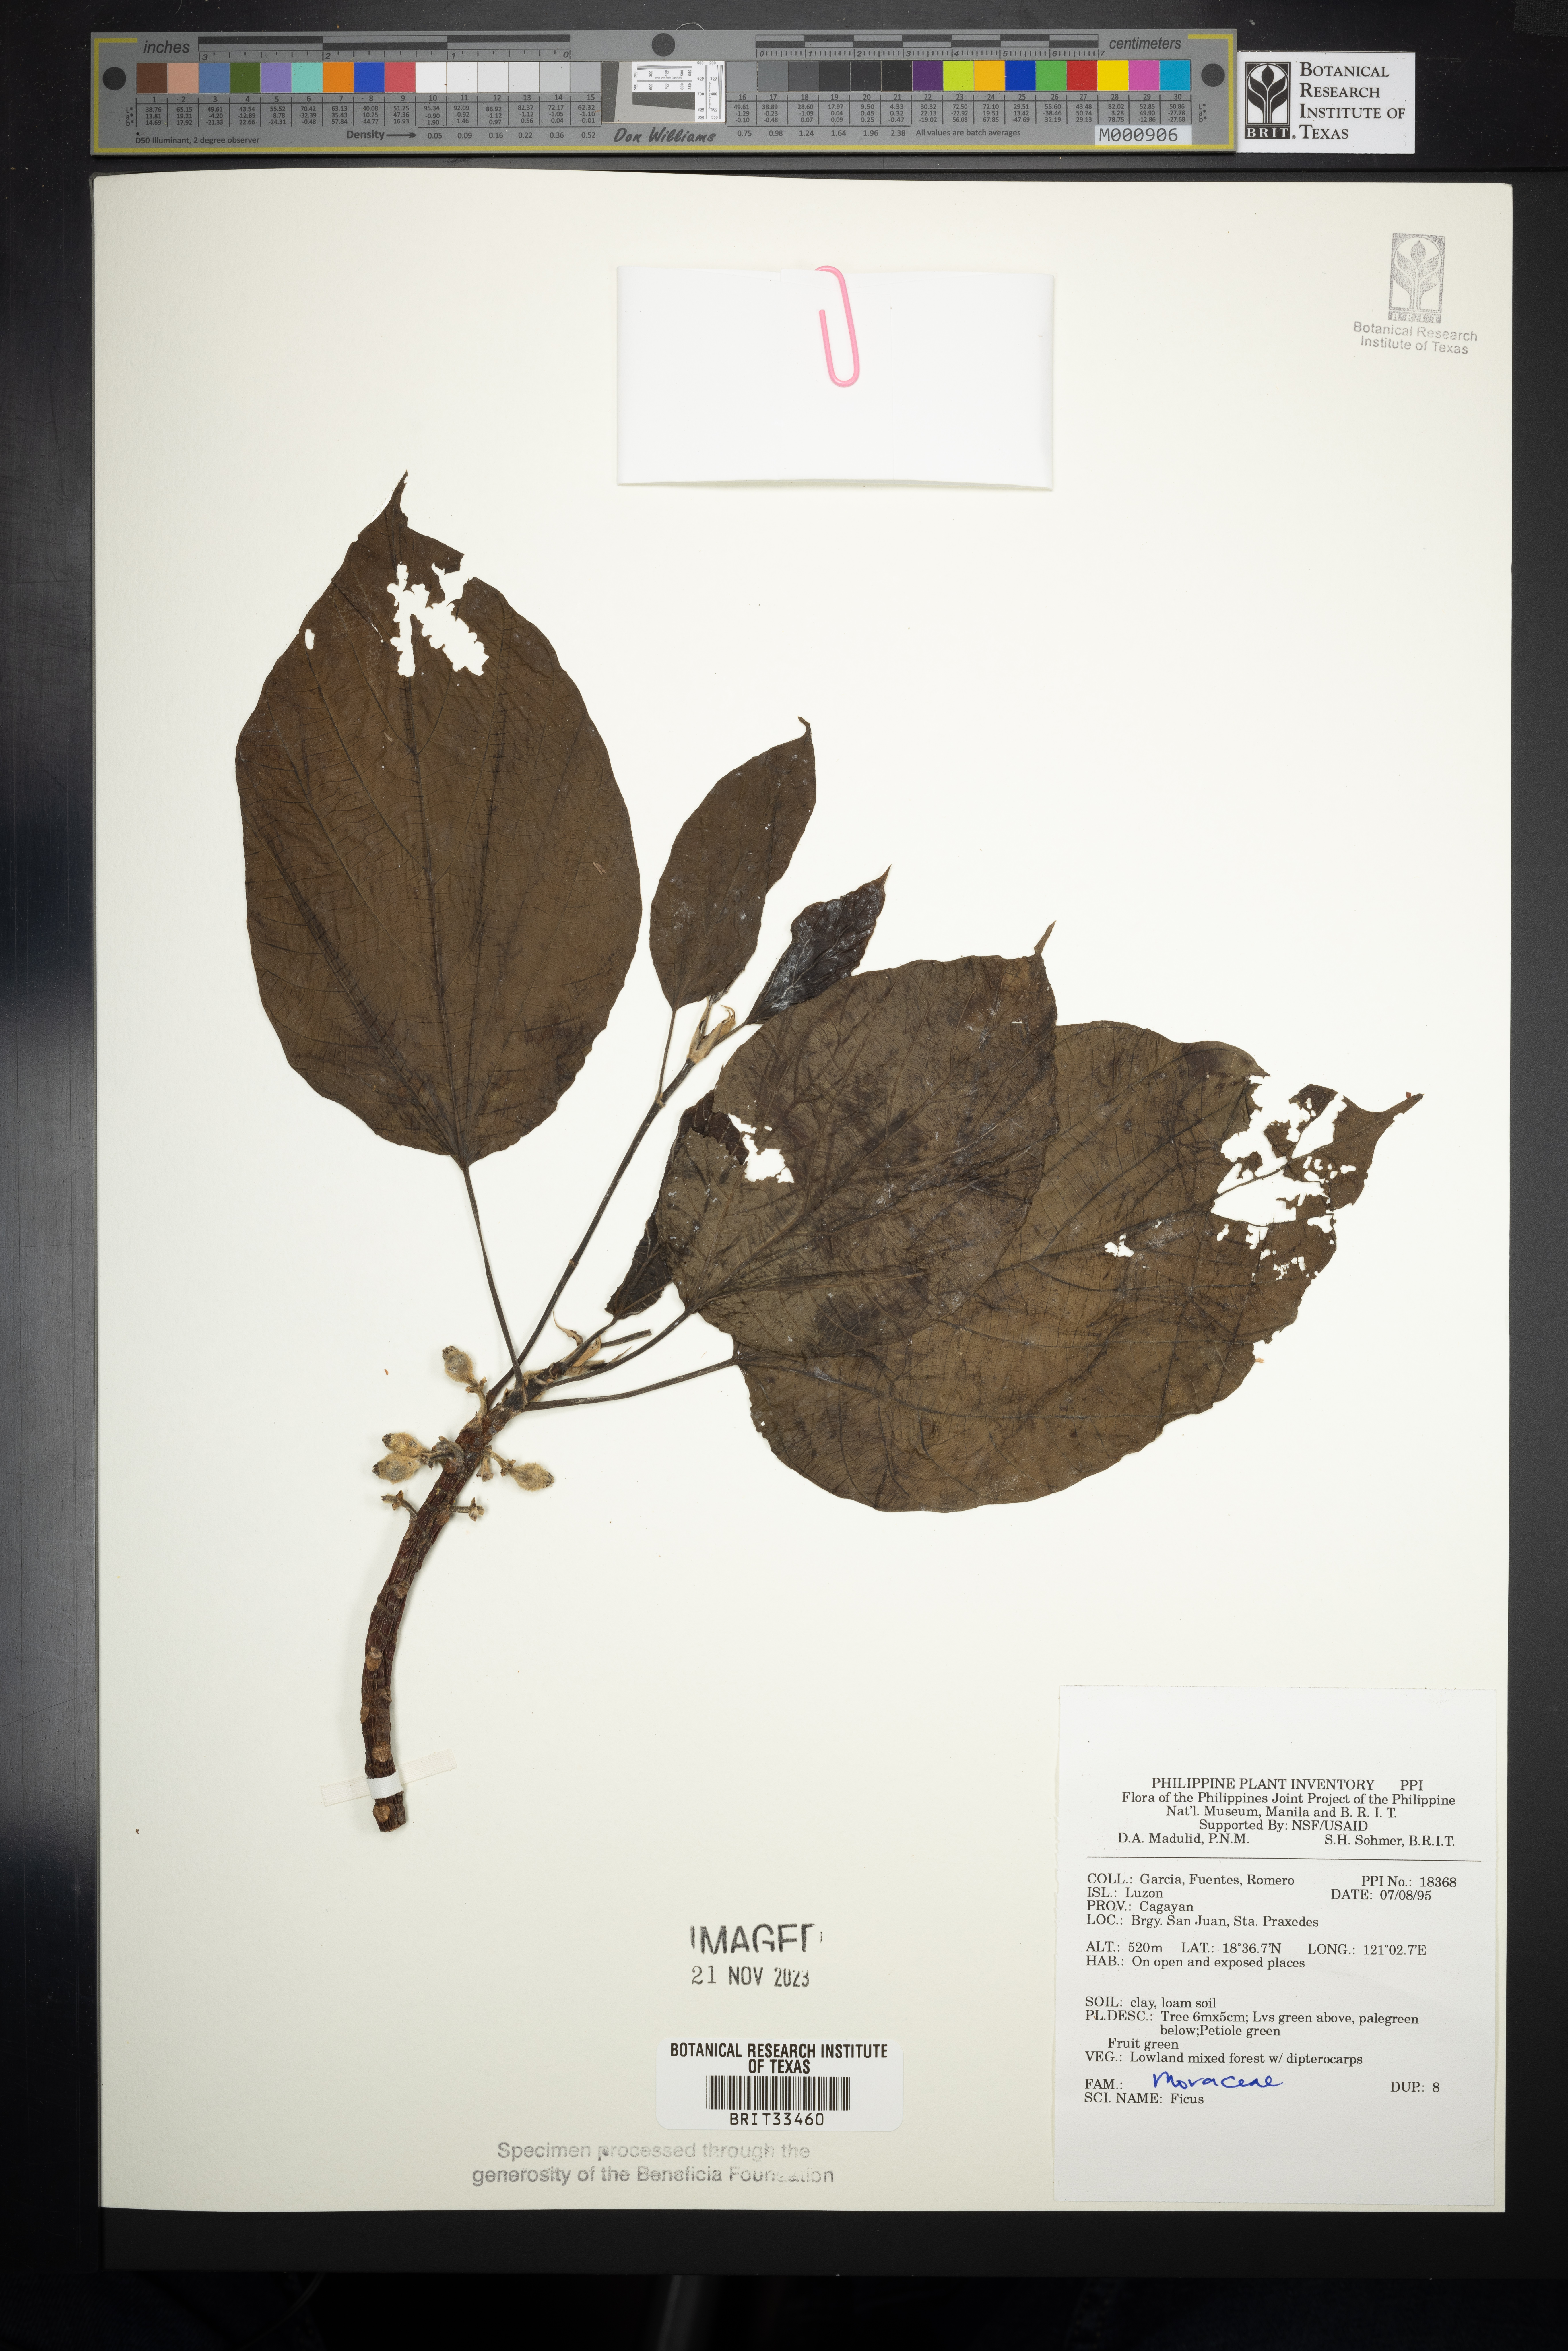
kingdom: Plantae
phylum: Tracheophyta
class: Magnoliopsida
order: Rosales
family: Moraceae
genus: Ficus
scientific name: Ficus
